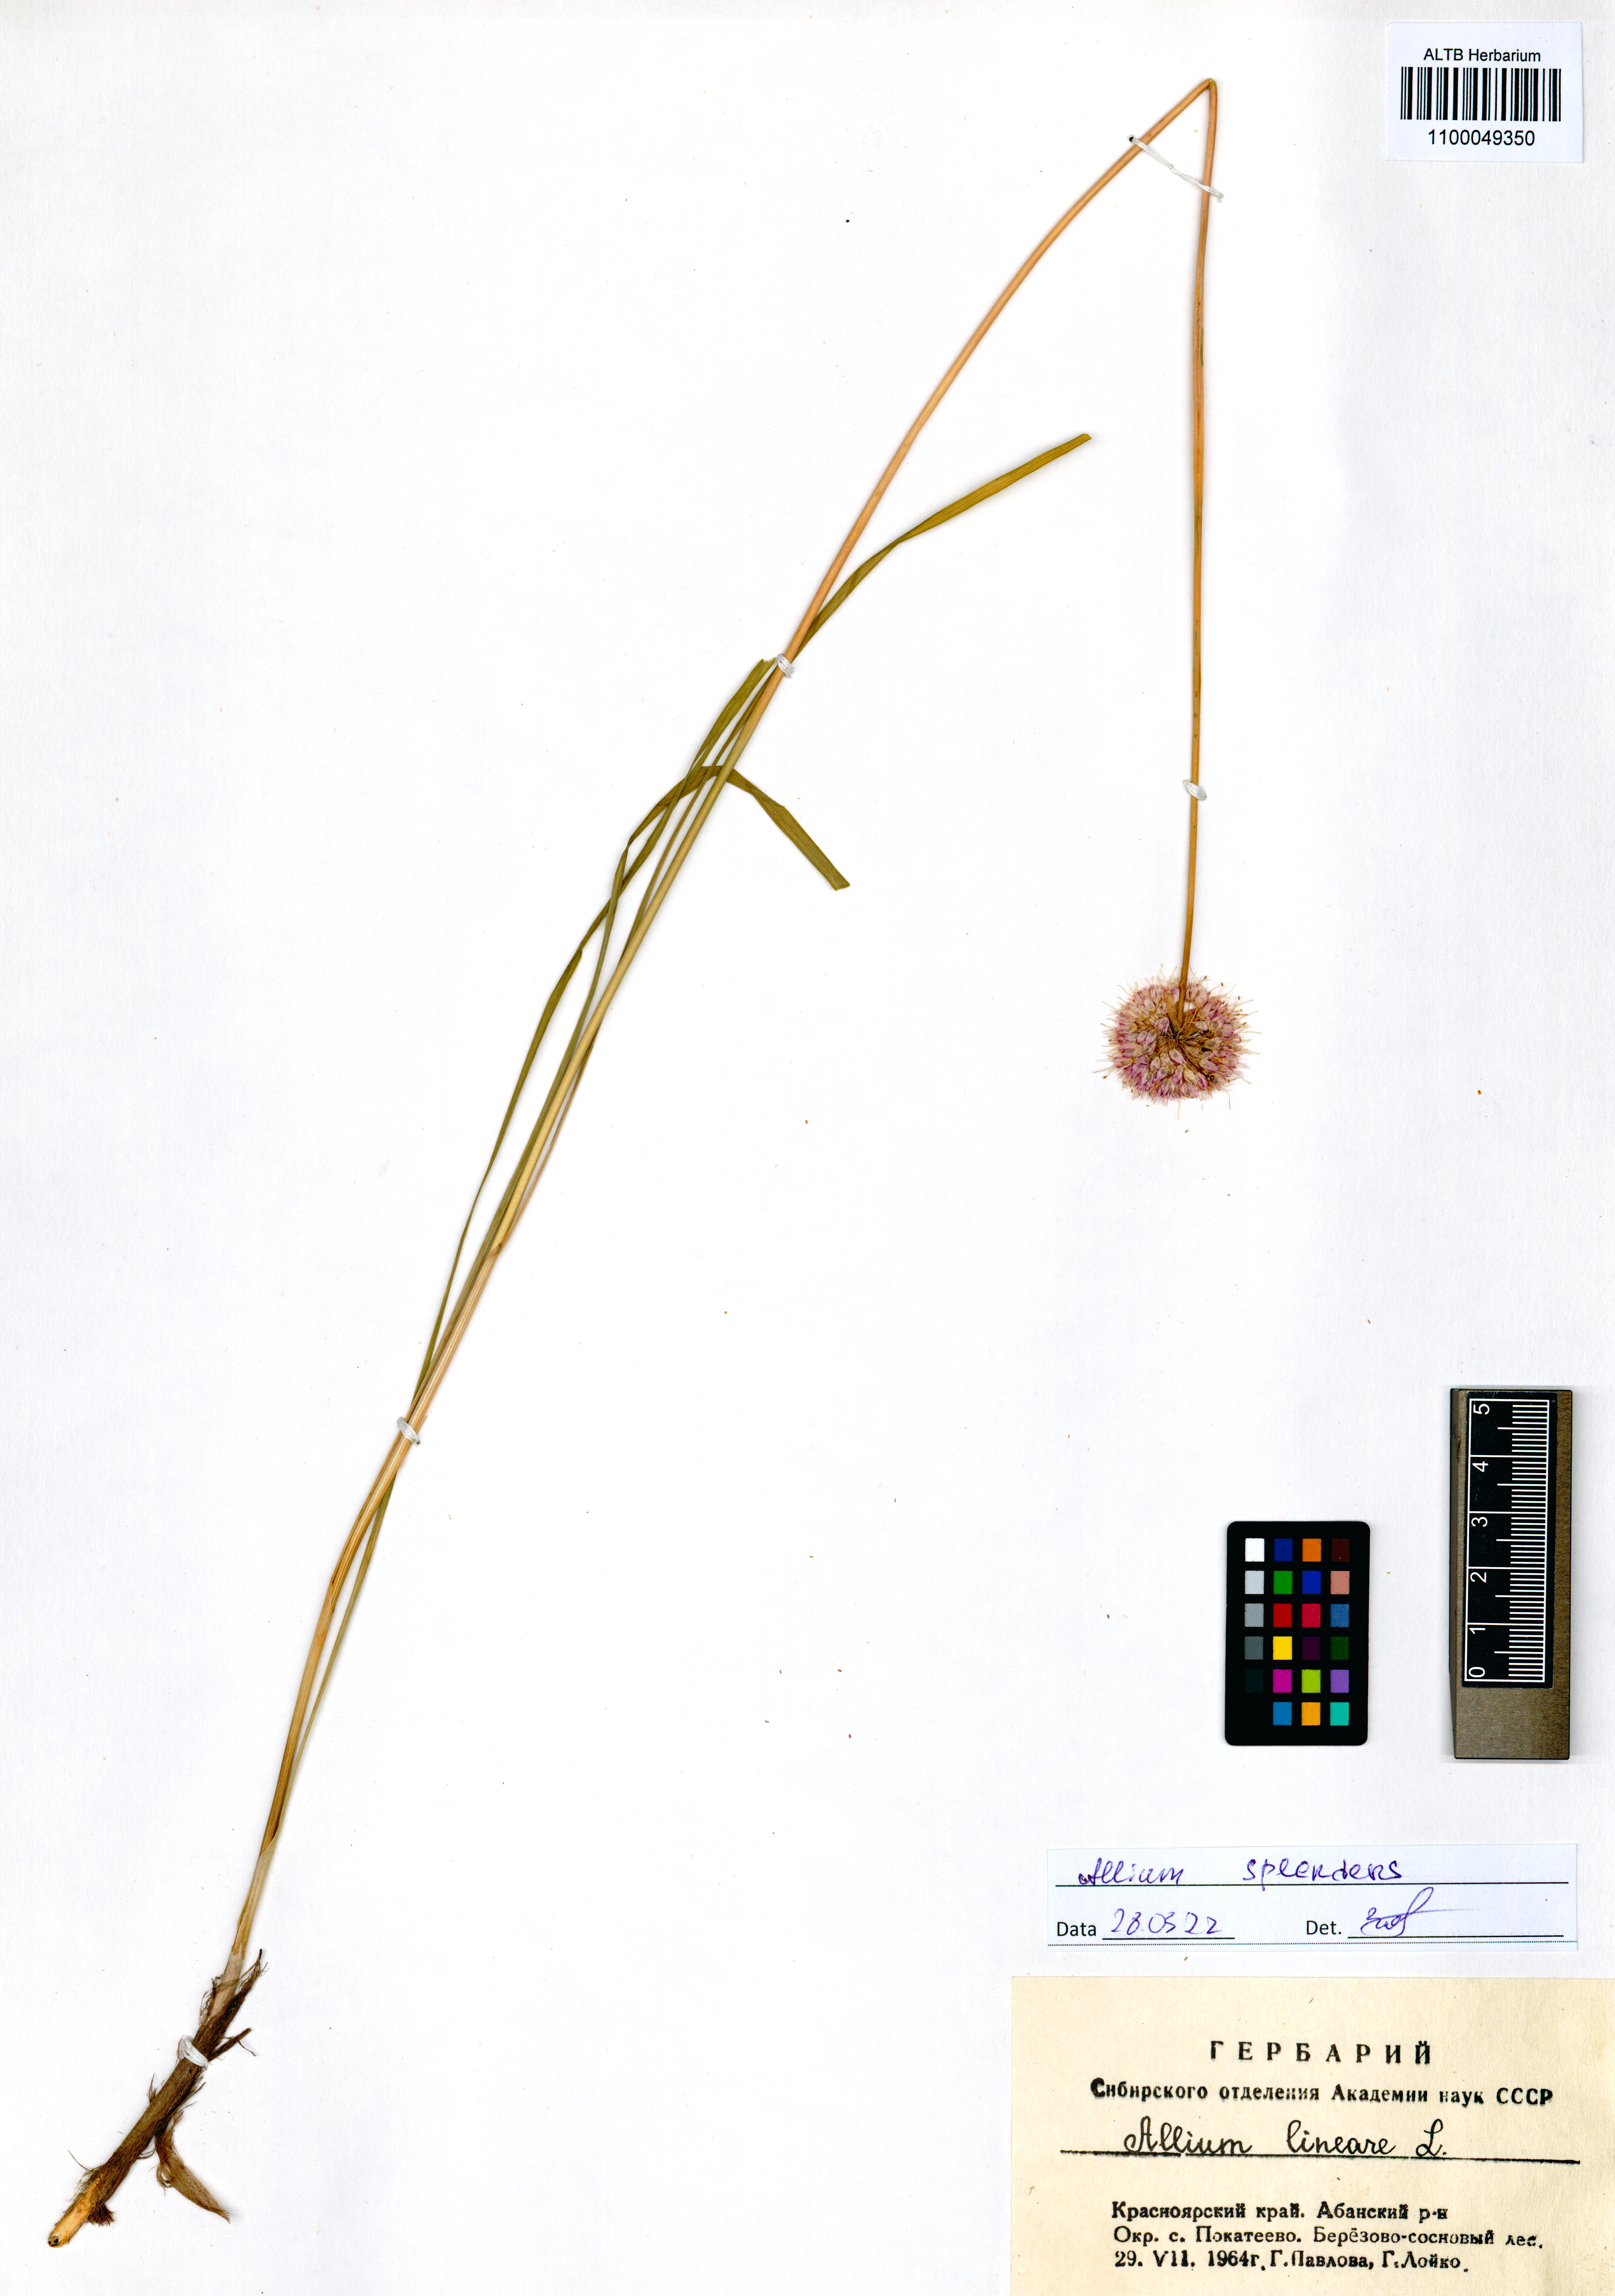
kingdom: Plantae
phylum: Tracheophyta
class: Liliopsida
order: Asparagales
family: Amaryllidaceae
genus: Allium
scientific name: Allium splendens
